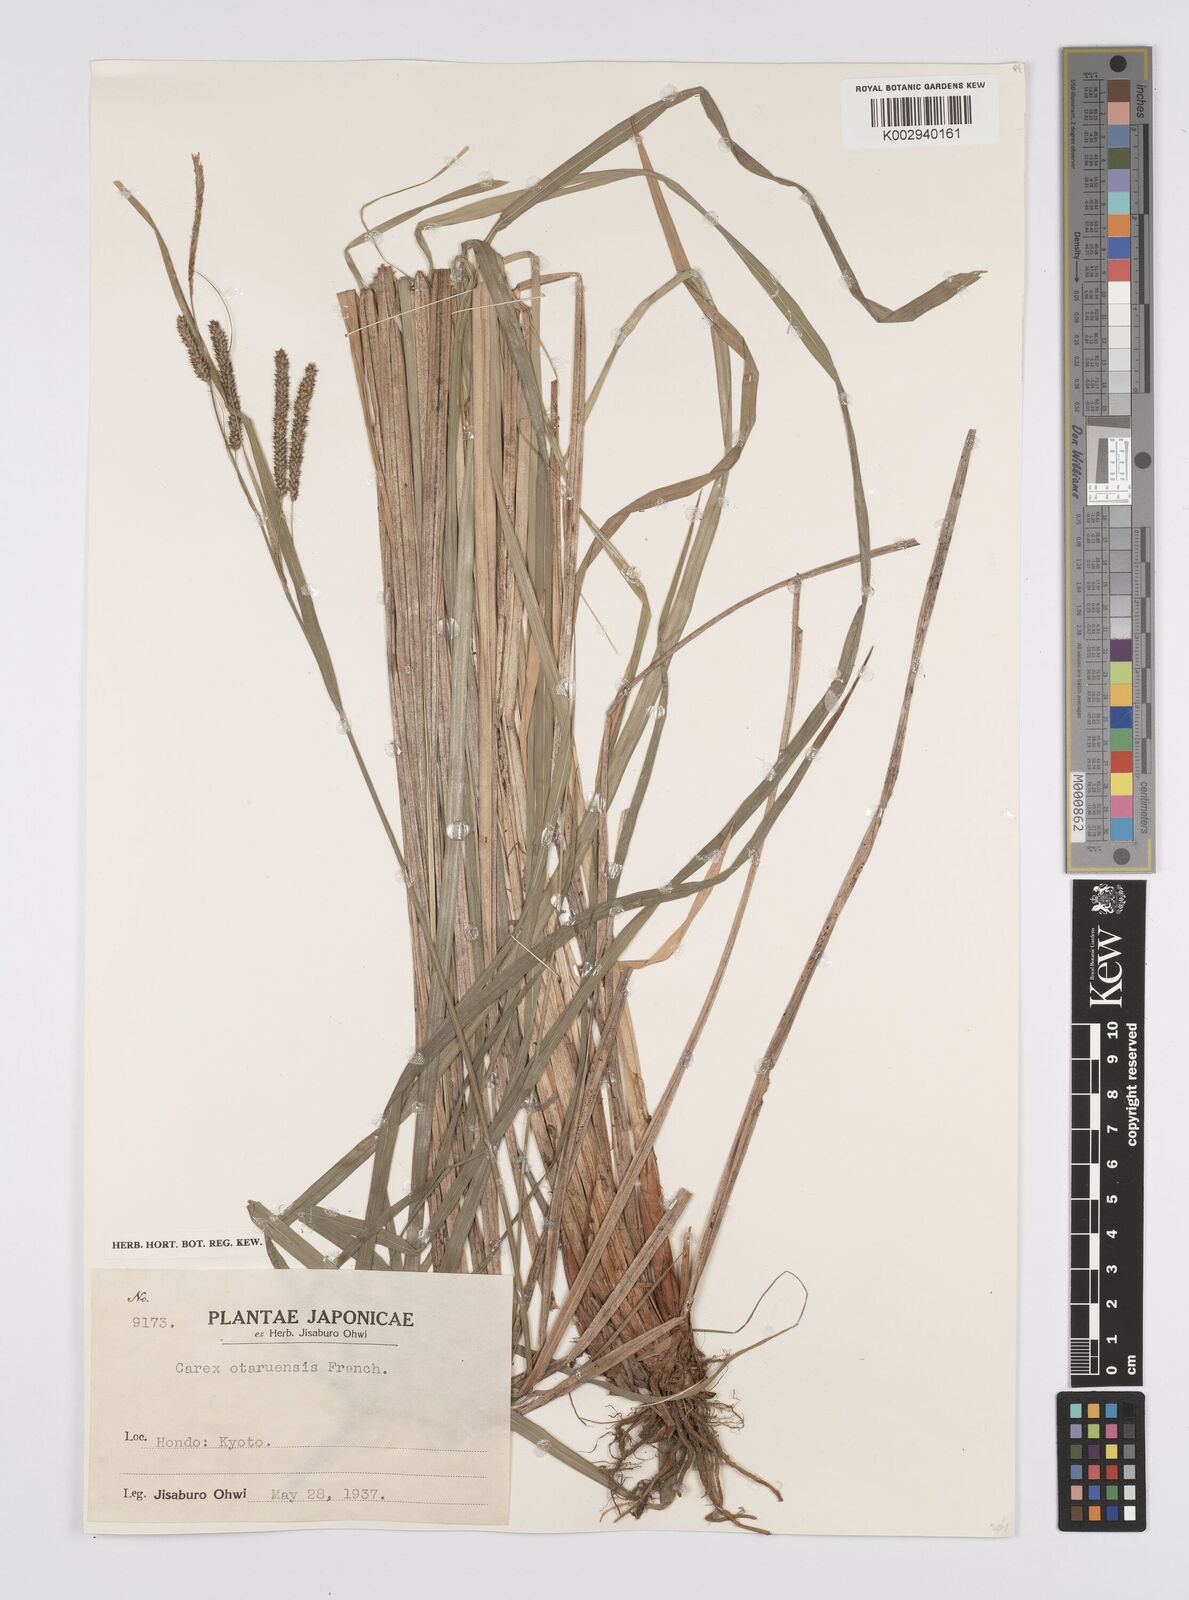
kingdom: Plantae
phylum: Tracheophyta
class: Liliopsida
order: Poales
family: Cyperaceae
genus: Carex
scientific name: Carex otaruensis
